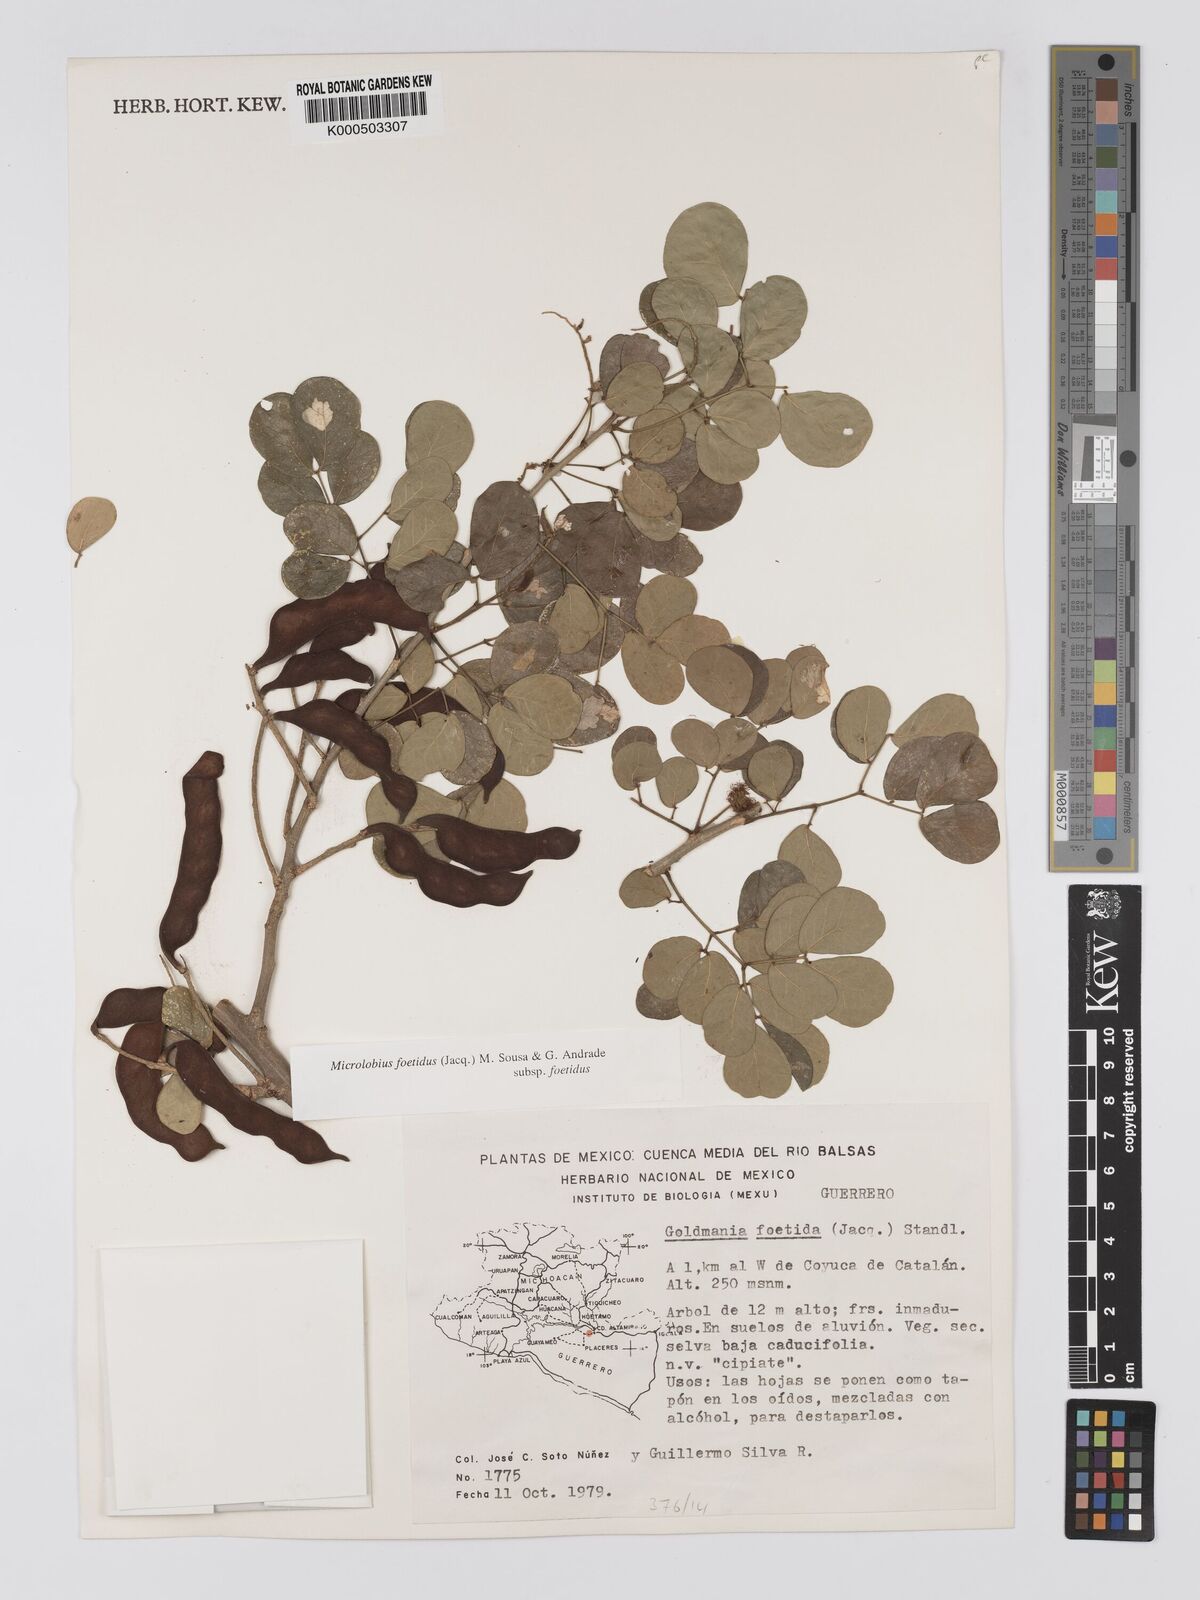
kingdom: Plantae
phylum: Tracheophyta
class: Magnoliopsida
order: Fabales
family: Fabaceae
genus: Microlobius
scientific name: Microlobius foetidus
